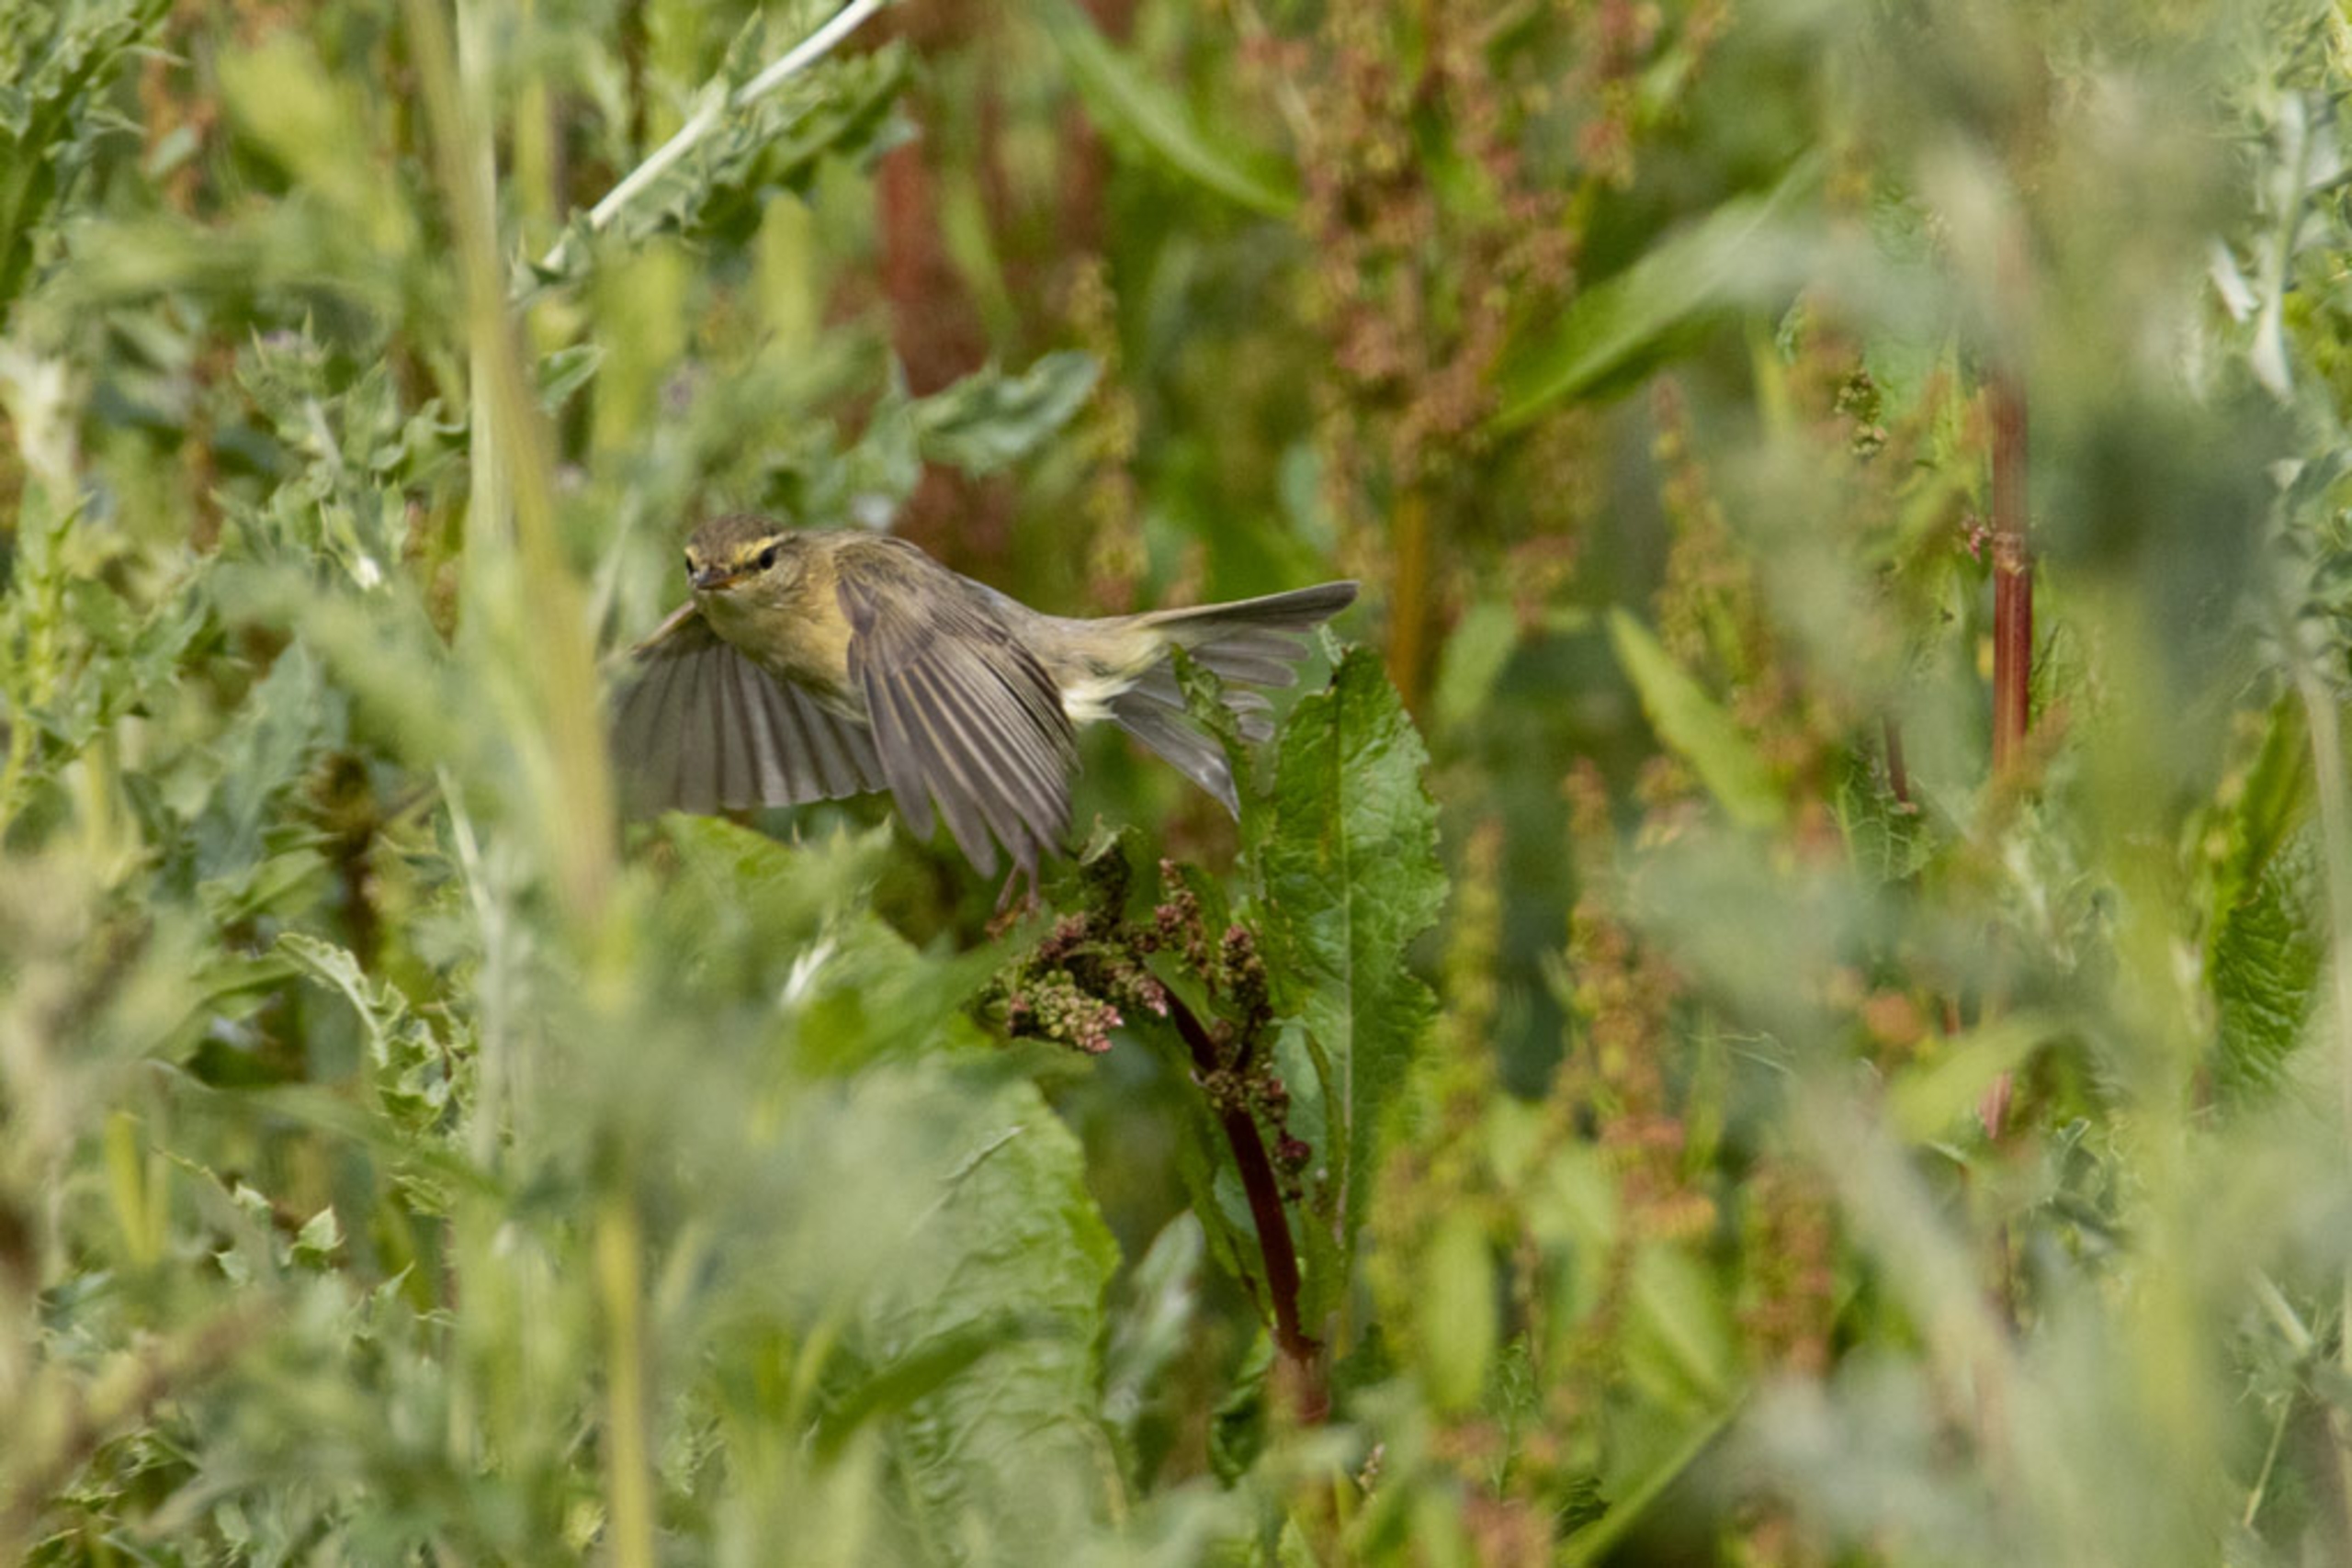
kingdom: Animalia
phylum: Chordata
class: Aves
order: Passeriformes
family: Phylloscopidae
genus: Phylloscopus
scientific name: Phylloscopus trochilus
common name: Løvsanger
